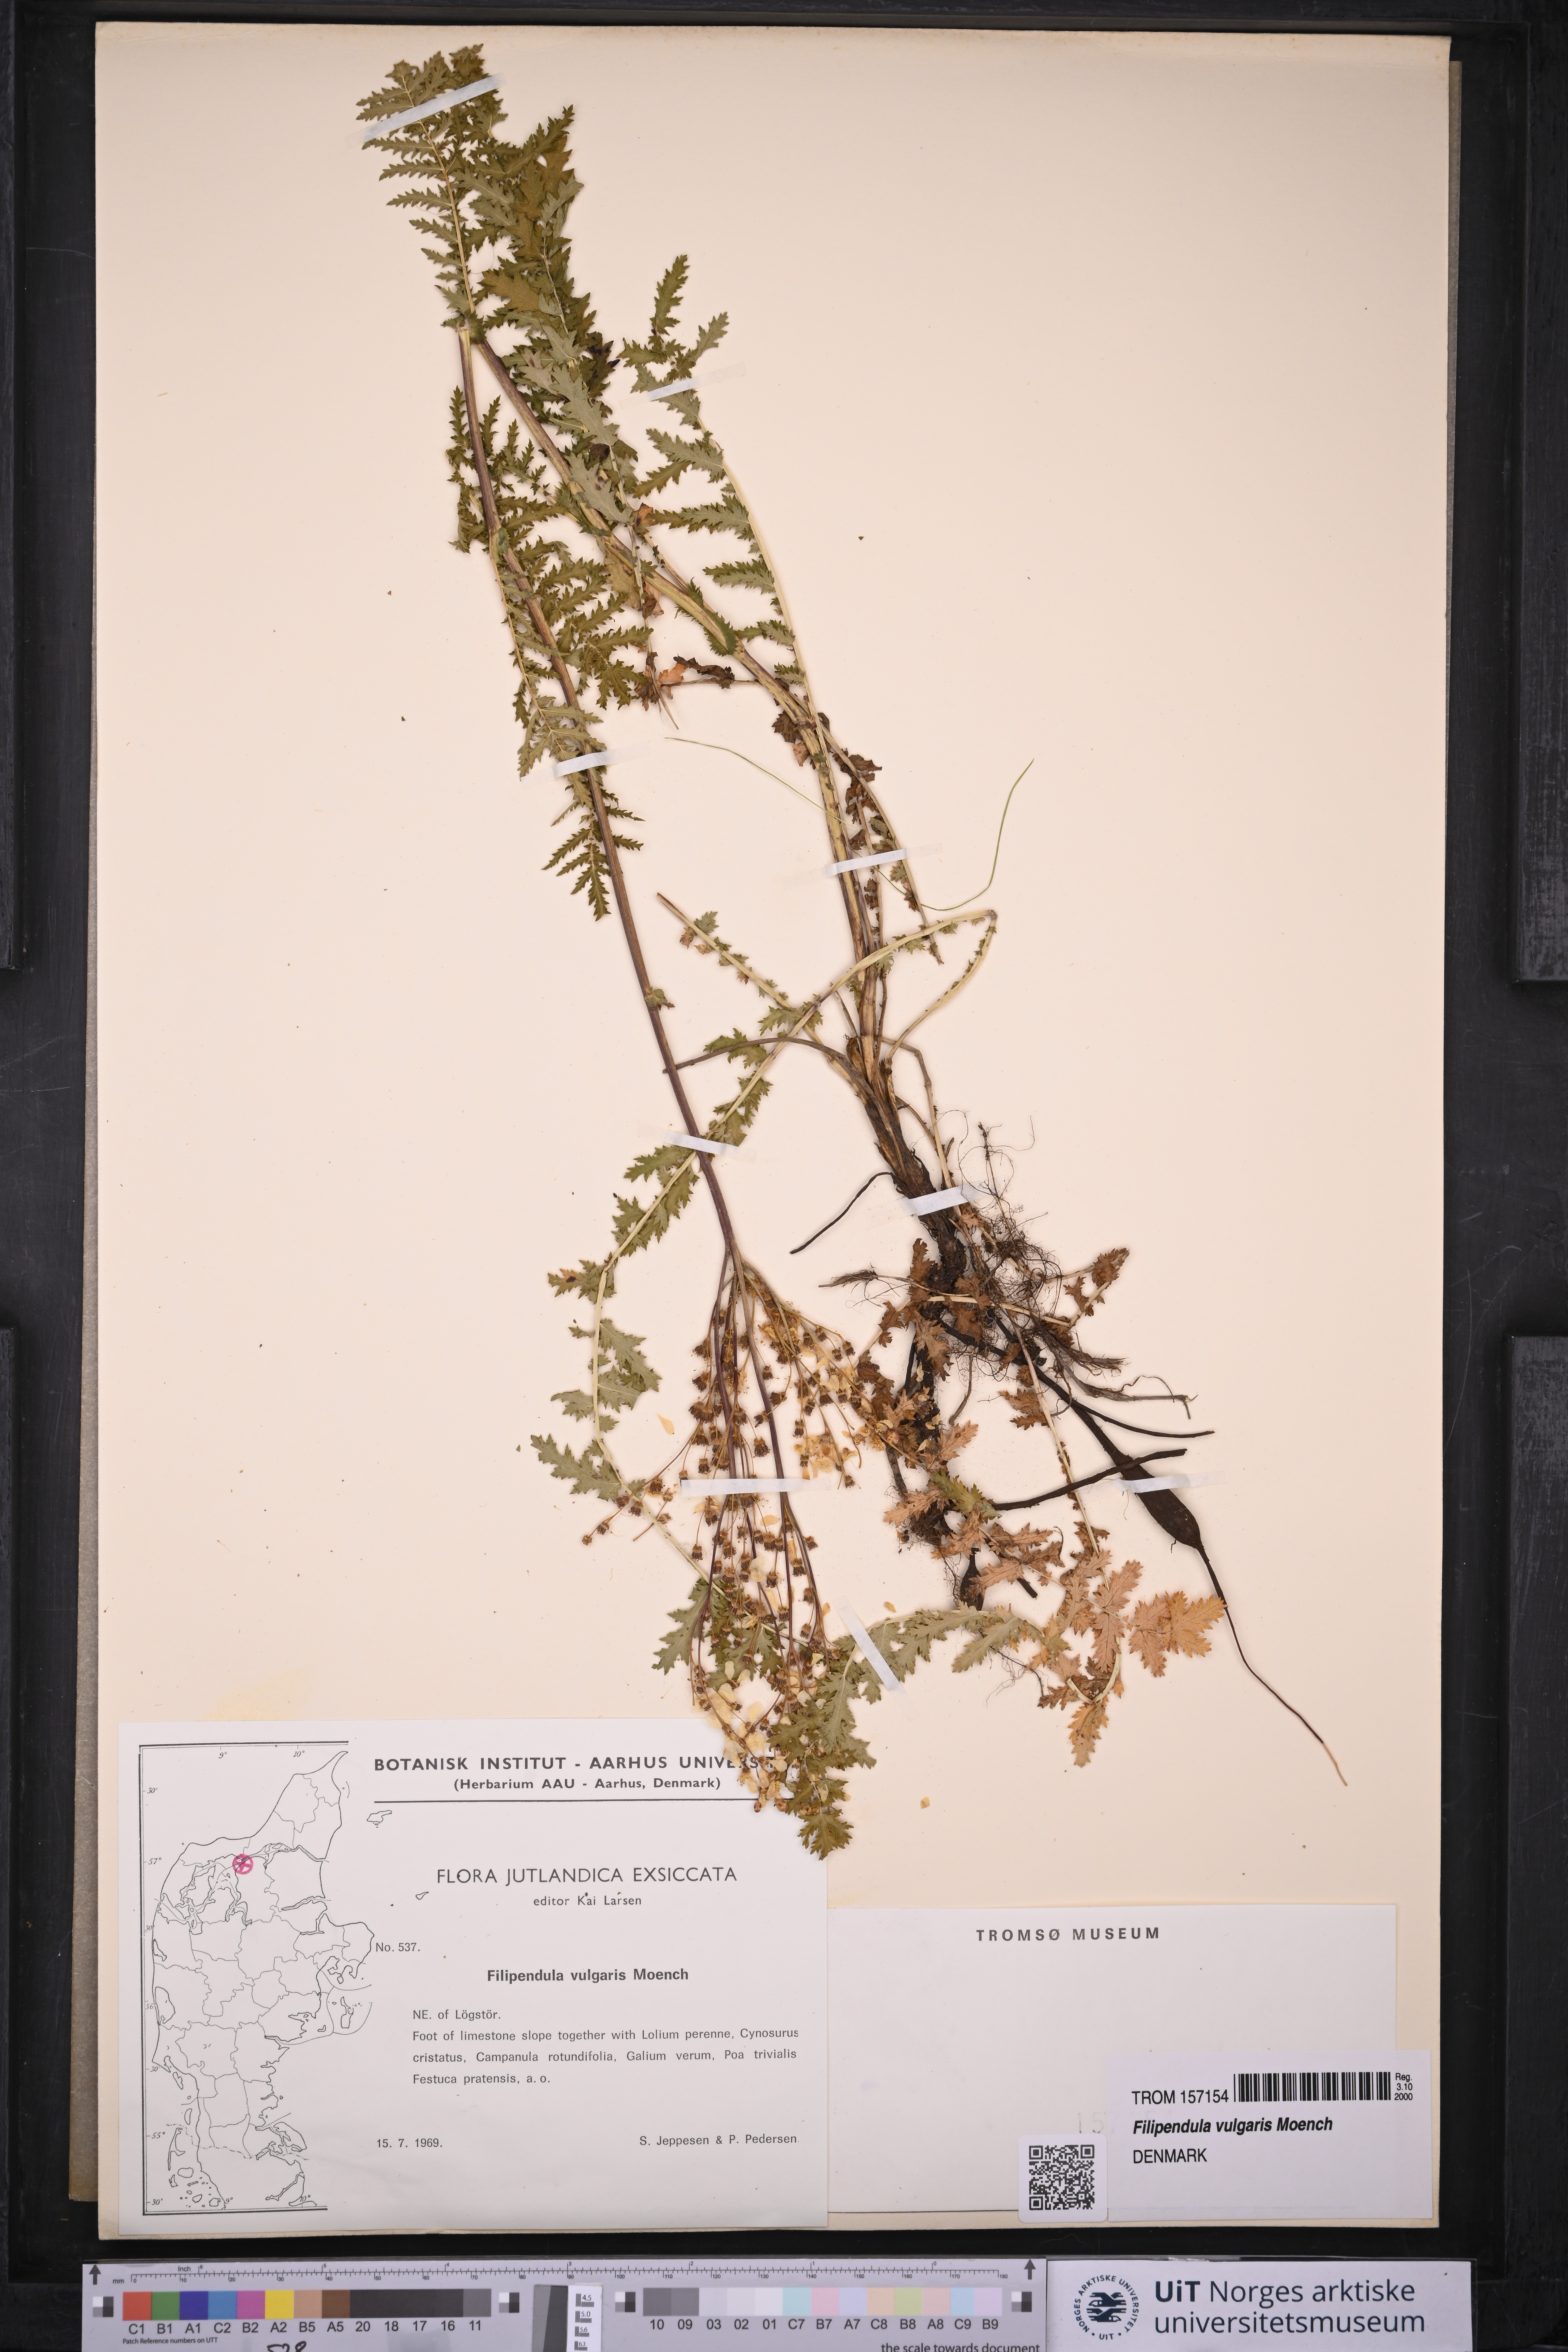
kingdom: Plantae
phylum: Tracheophyta
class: Magnoliopsida
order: Rosales
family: Rosaceae
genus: Filipendula
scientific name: Filipendula vulgaris
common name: Dropwort
